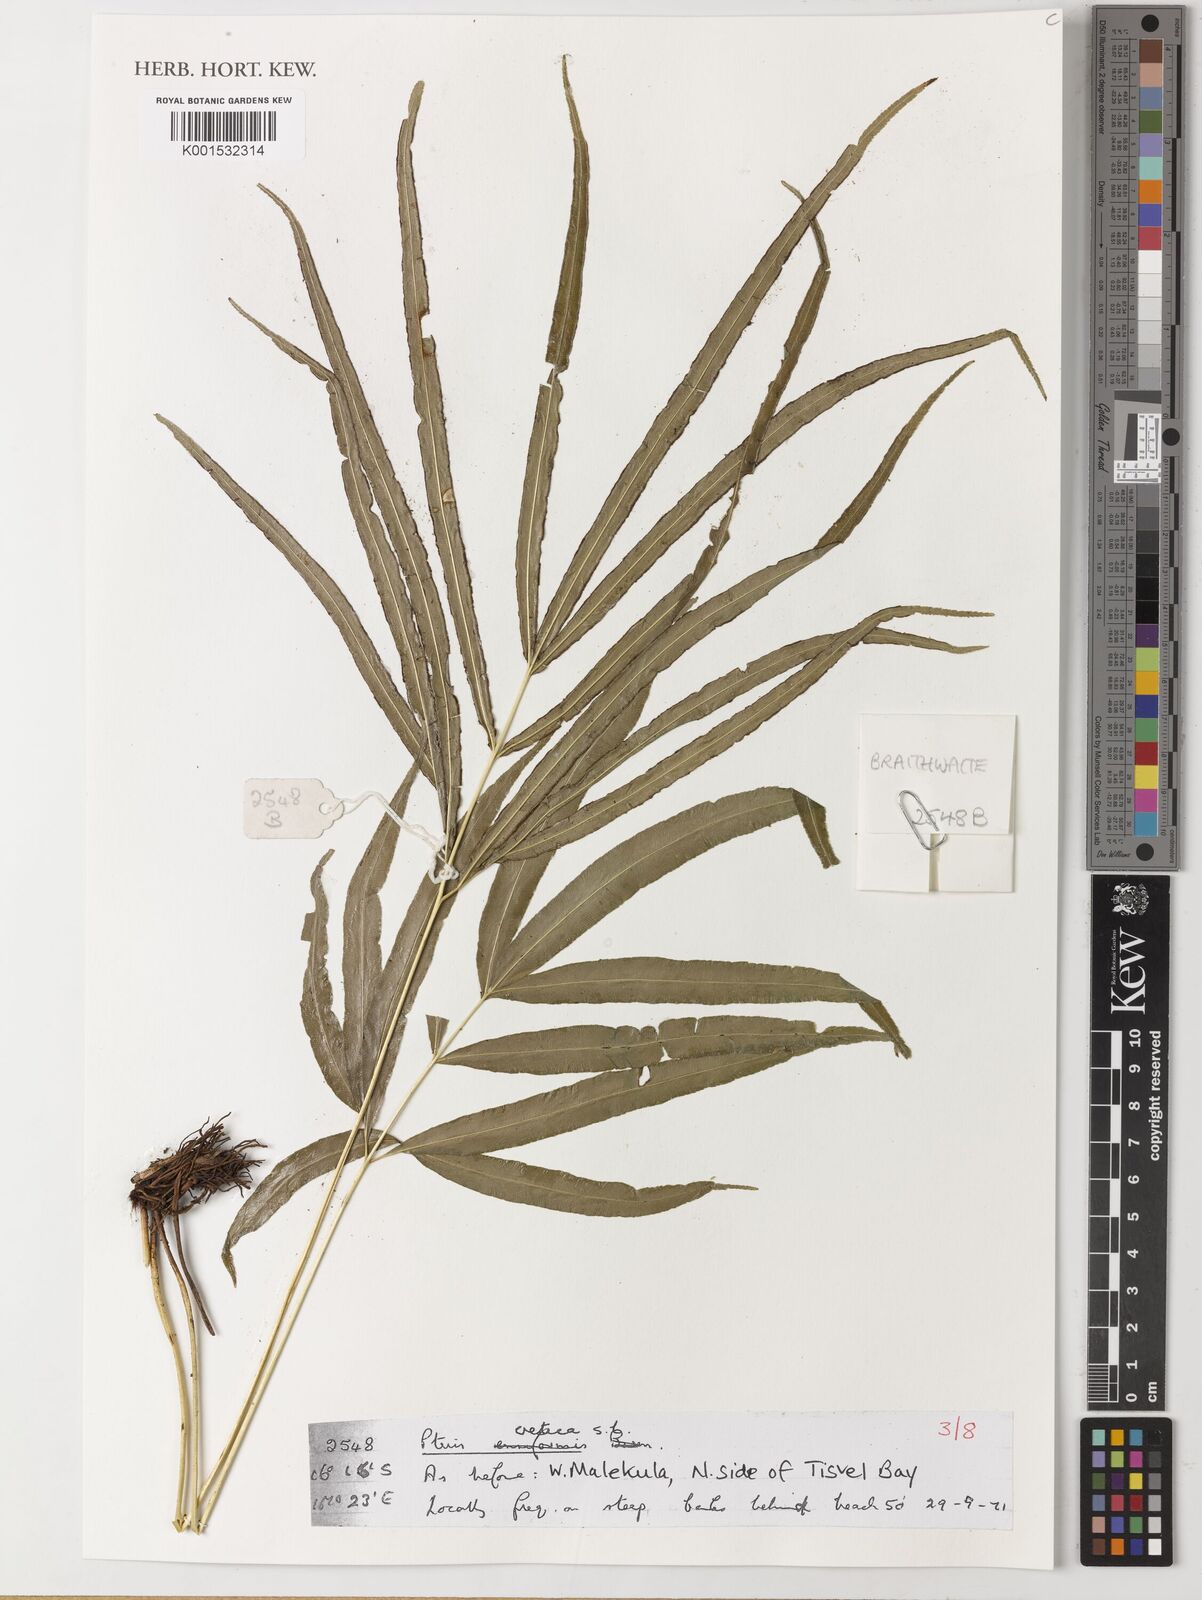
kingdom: Plantae
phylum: Tracheophyta
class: Polypodiopsida
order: Polypodiales
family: Pteridaceae
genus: Pteris
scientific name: Pteris cretica
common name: Ribbon fern
